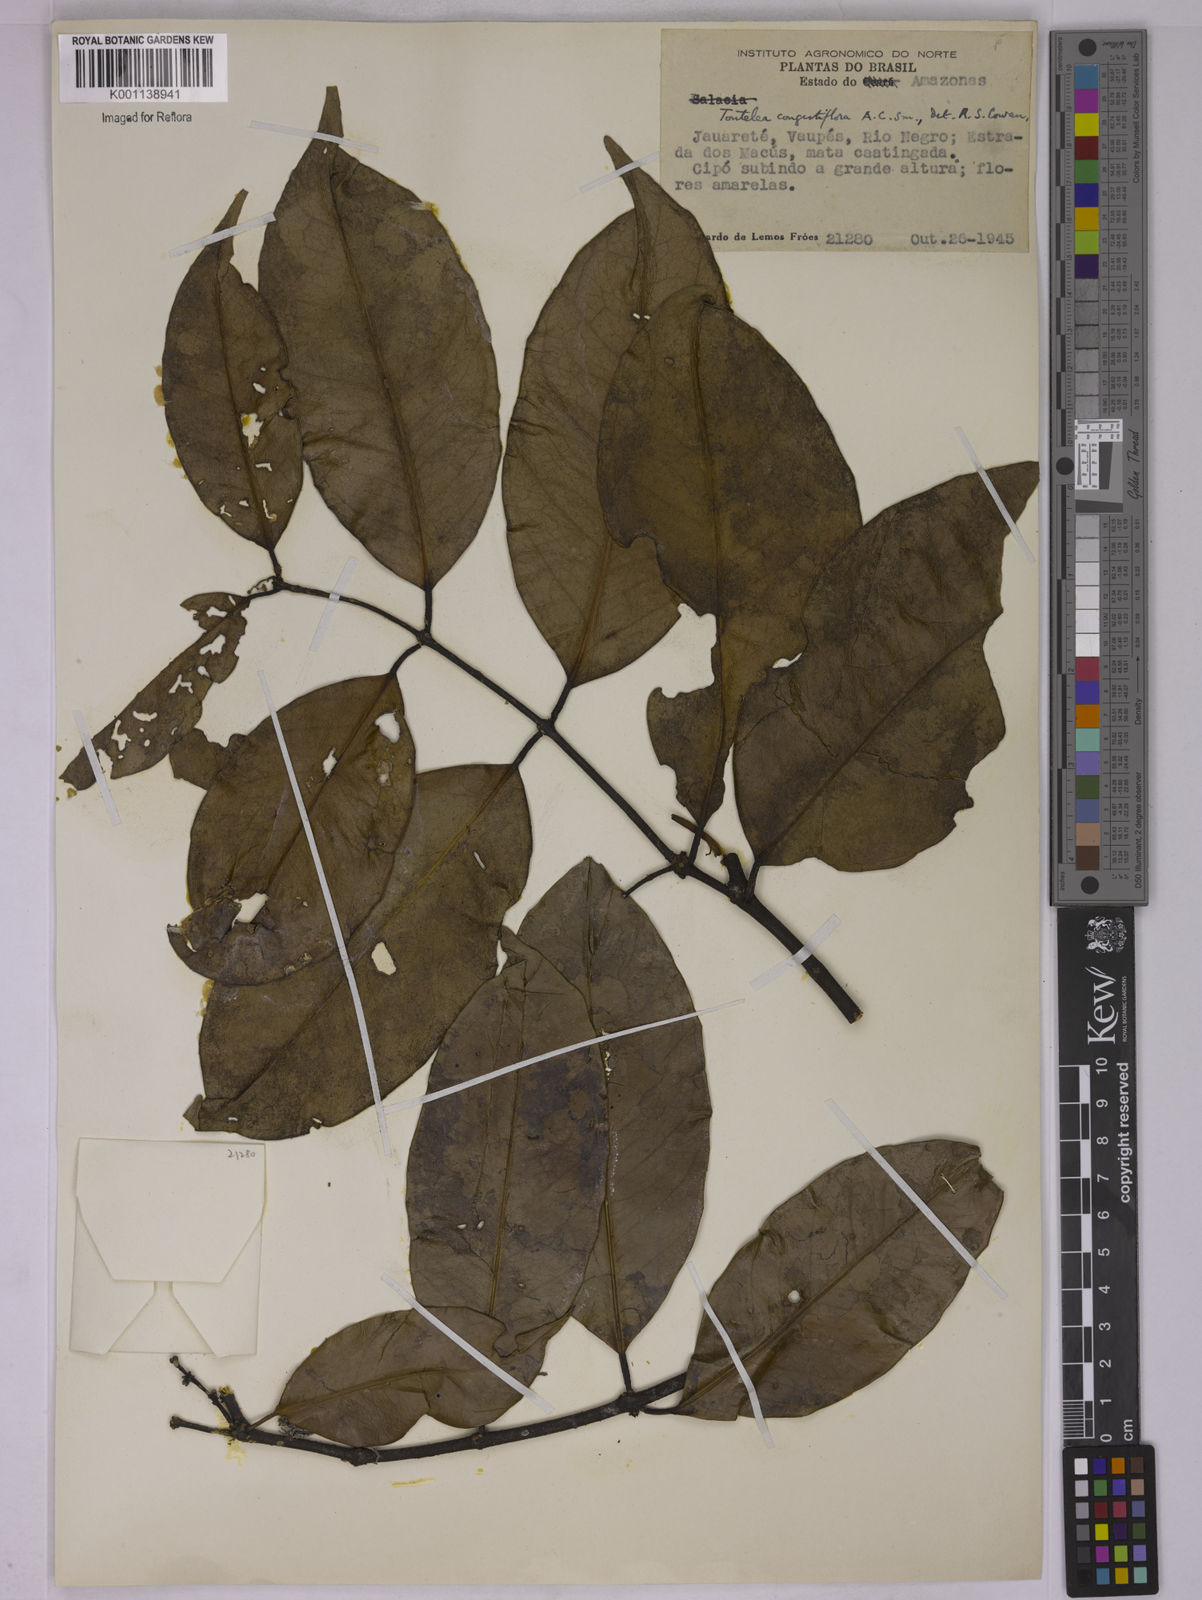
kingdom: Plantae
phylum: Tracheophyta
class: Magnoliopsida
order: Celastrales
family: Celastraceae
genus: Tontelea
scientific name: Tontelea congestiflora
